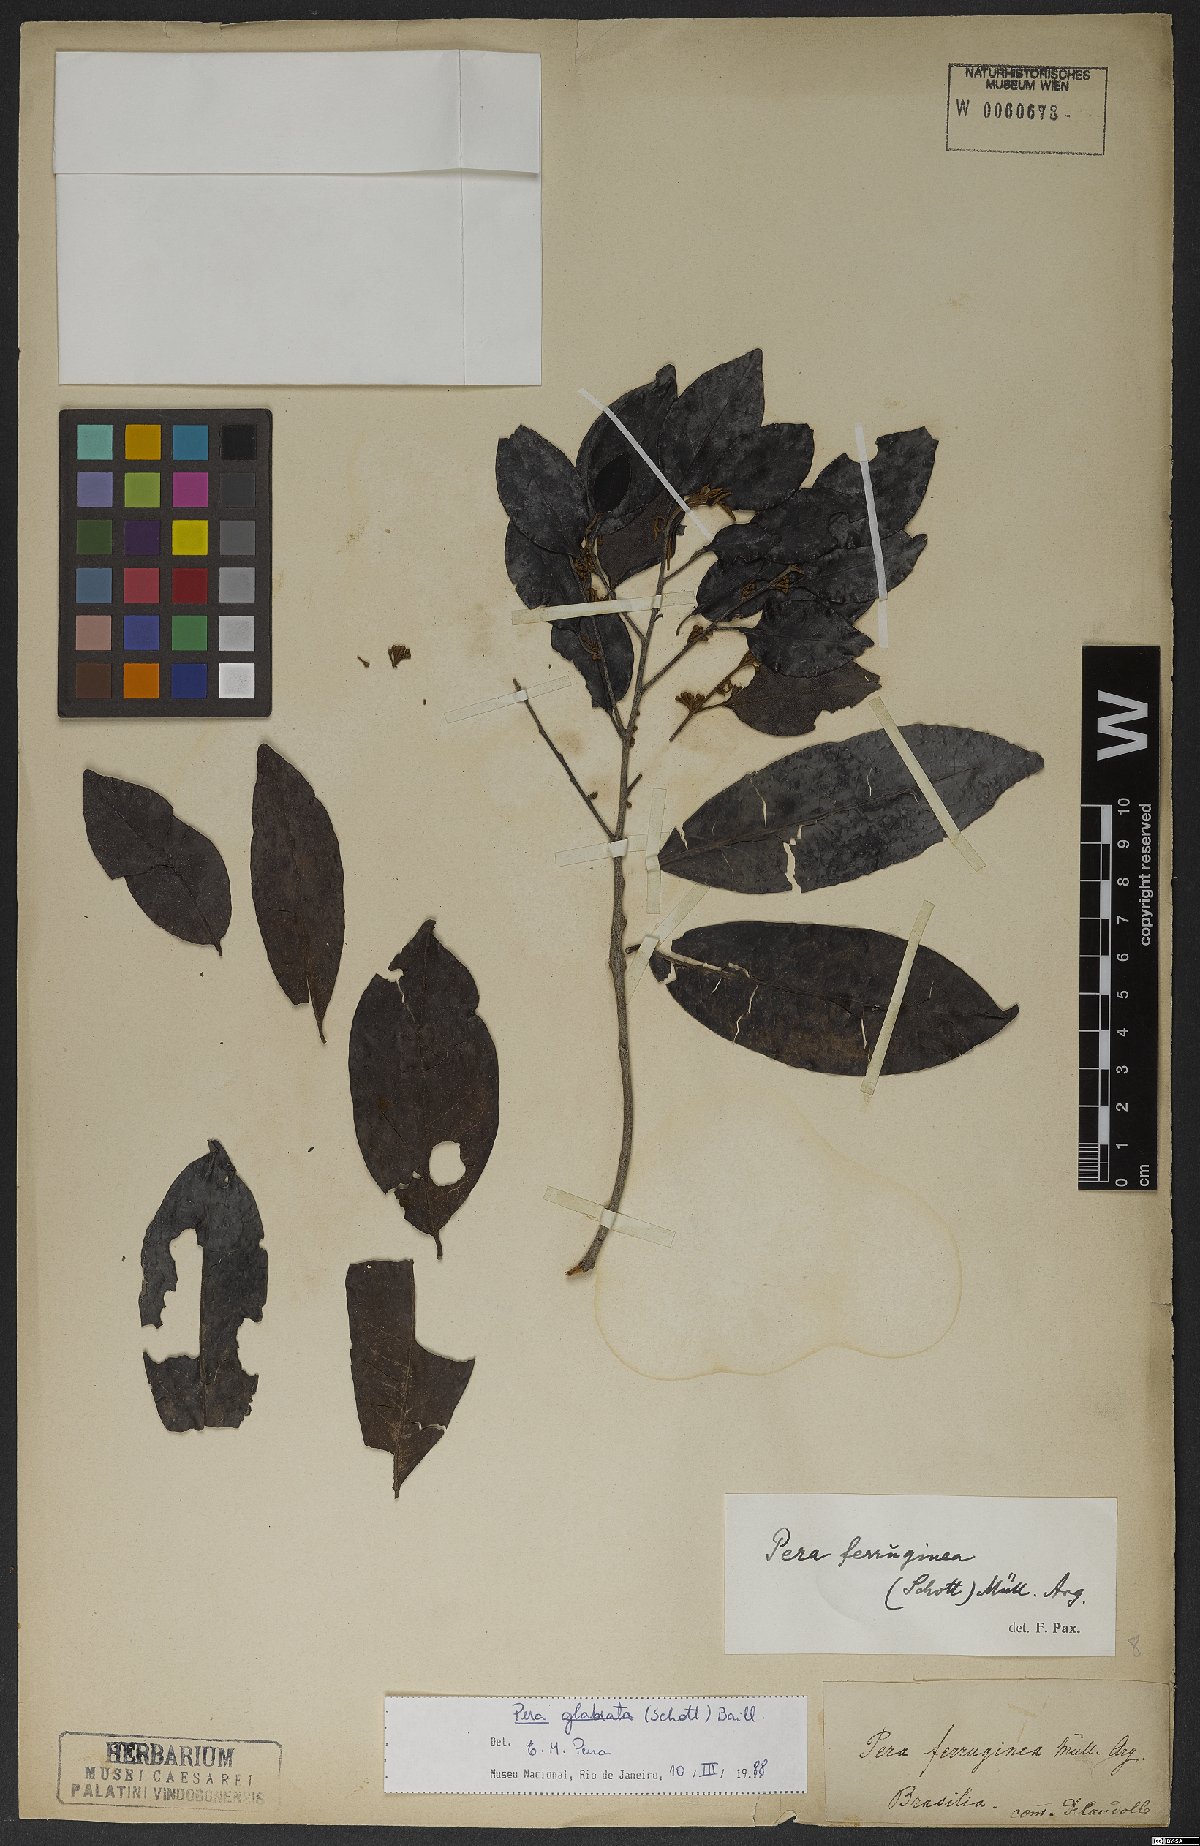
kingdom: Plantae
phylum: Tracheophyta
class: Magnoliopsida
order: Malpighiales
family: Peraceae
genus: Pera
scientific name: Pera glabrata
